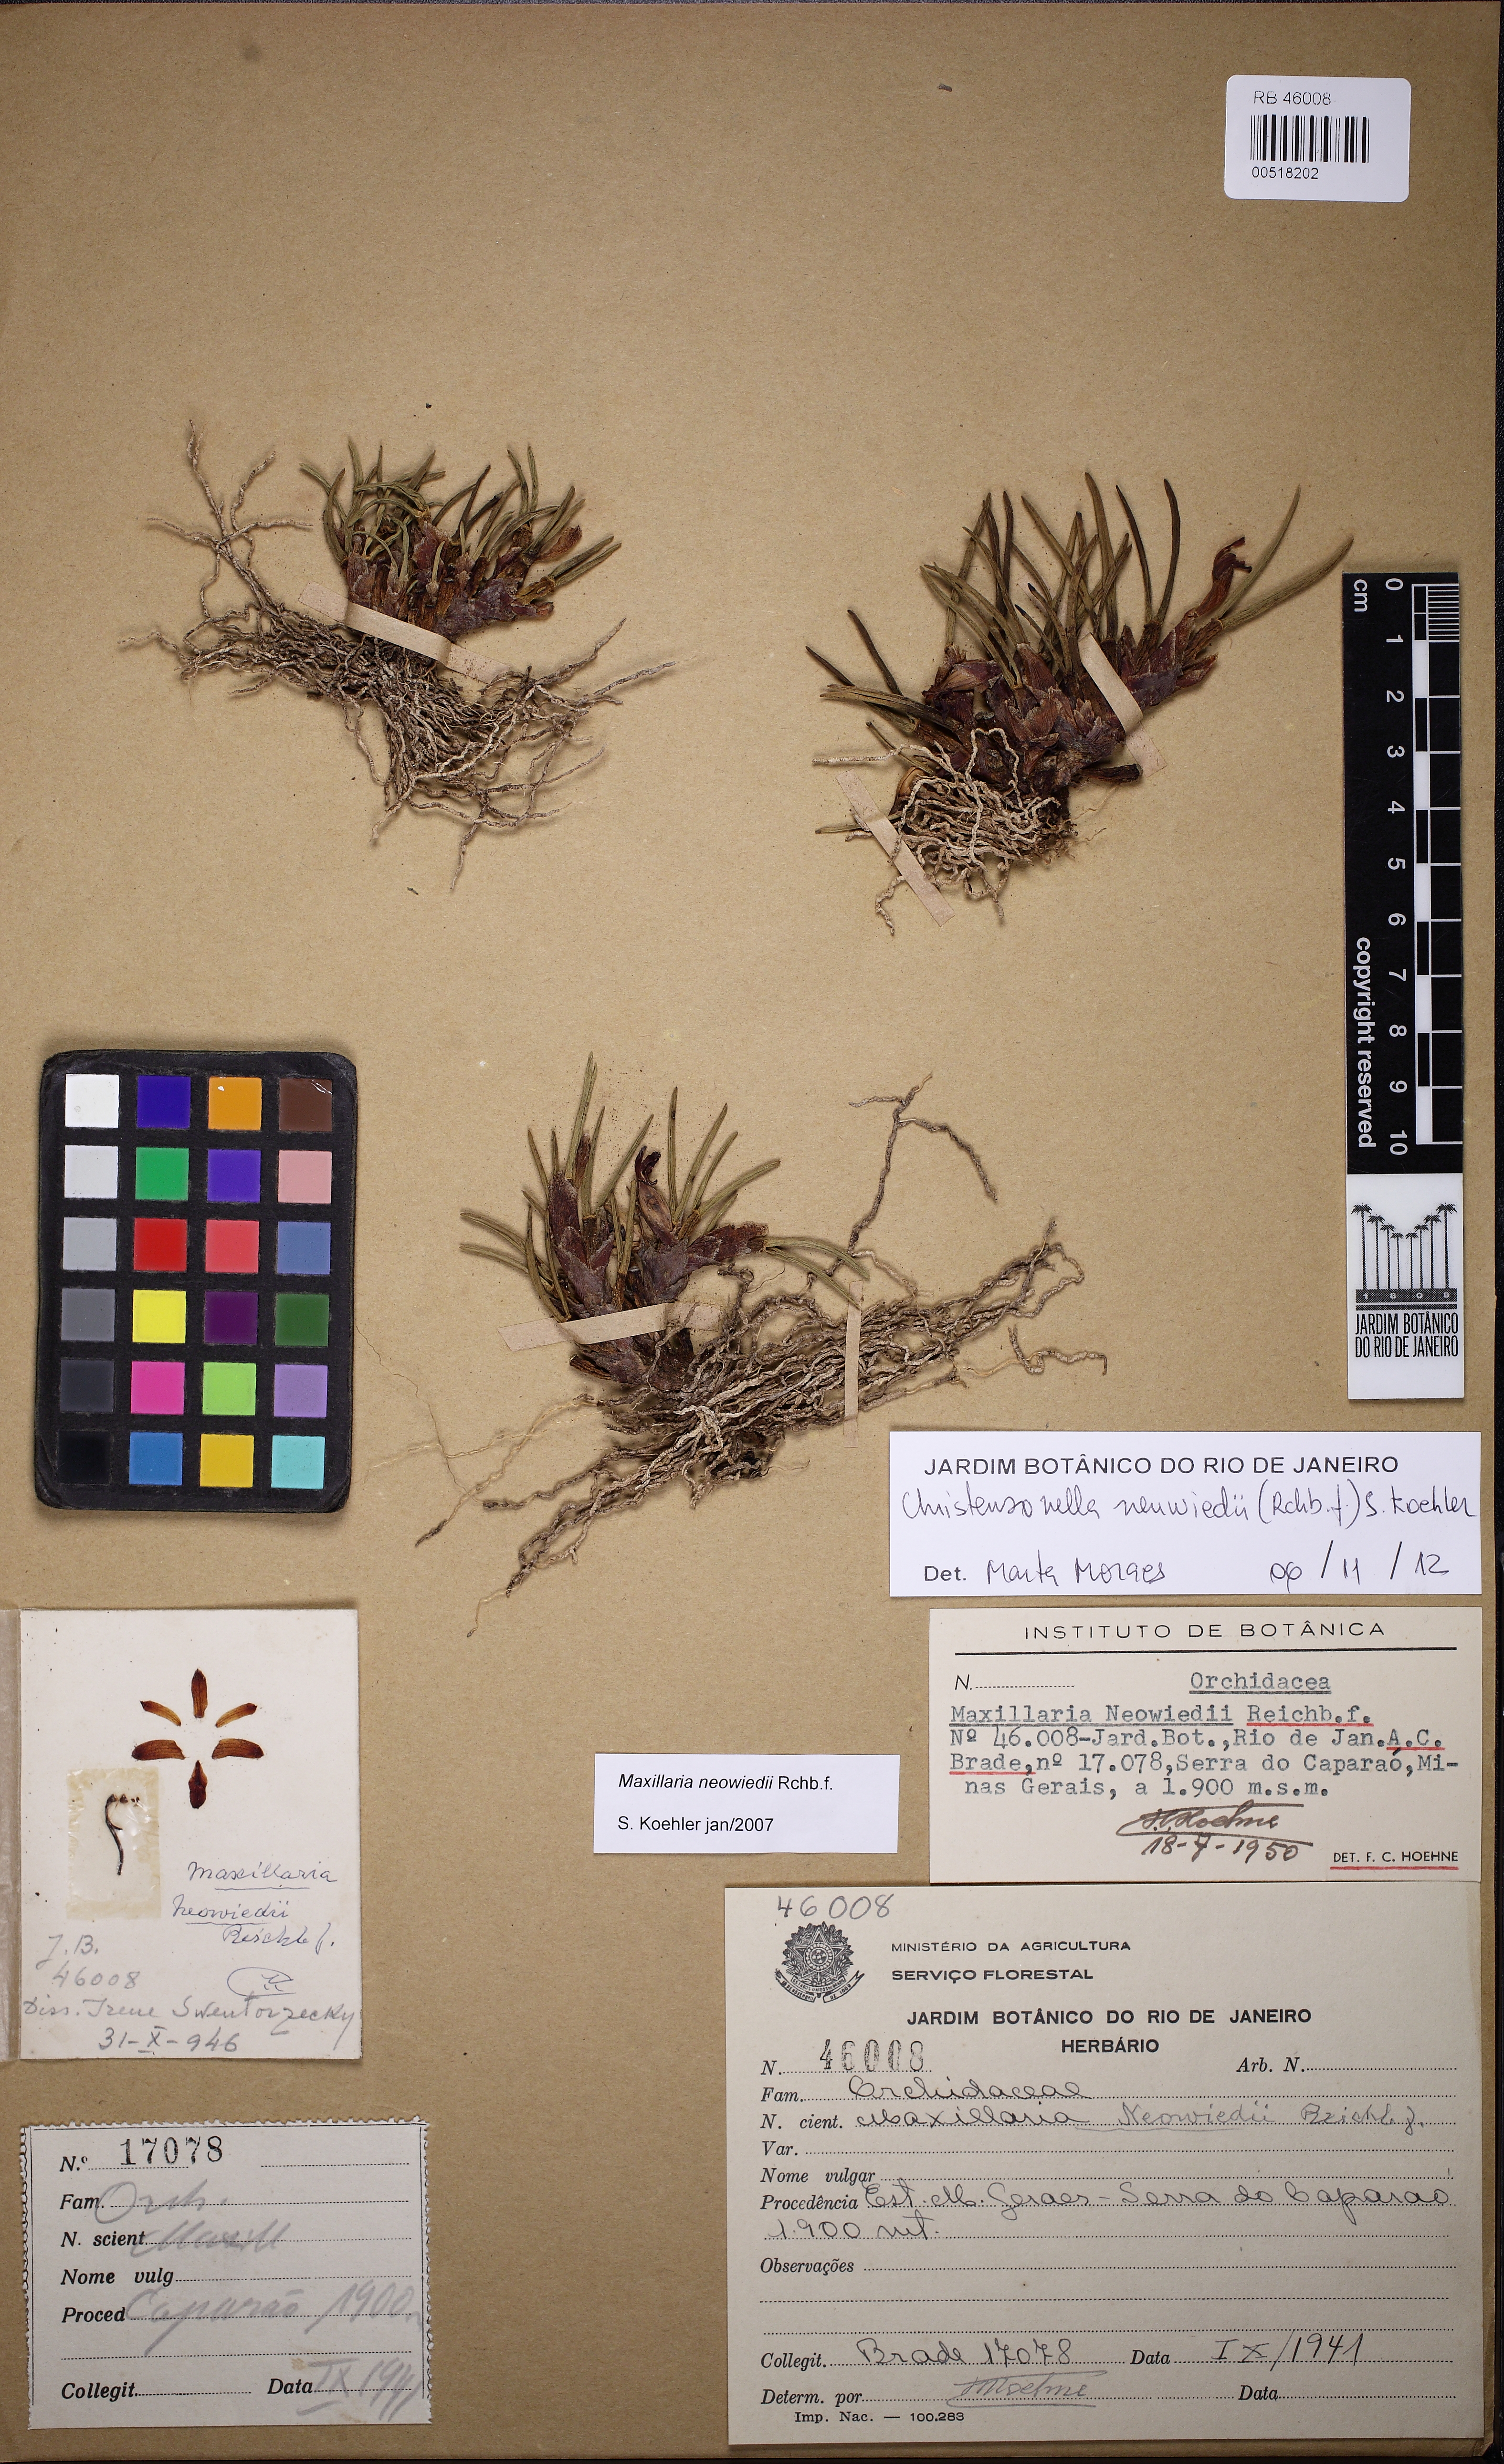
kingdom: Plantae
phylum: Tracheophyta
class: Liliopsida
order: Asparagales
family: Orchidaceae
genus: Maxillaria
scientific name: Maxillaria neowiedii
